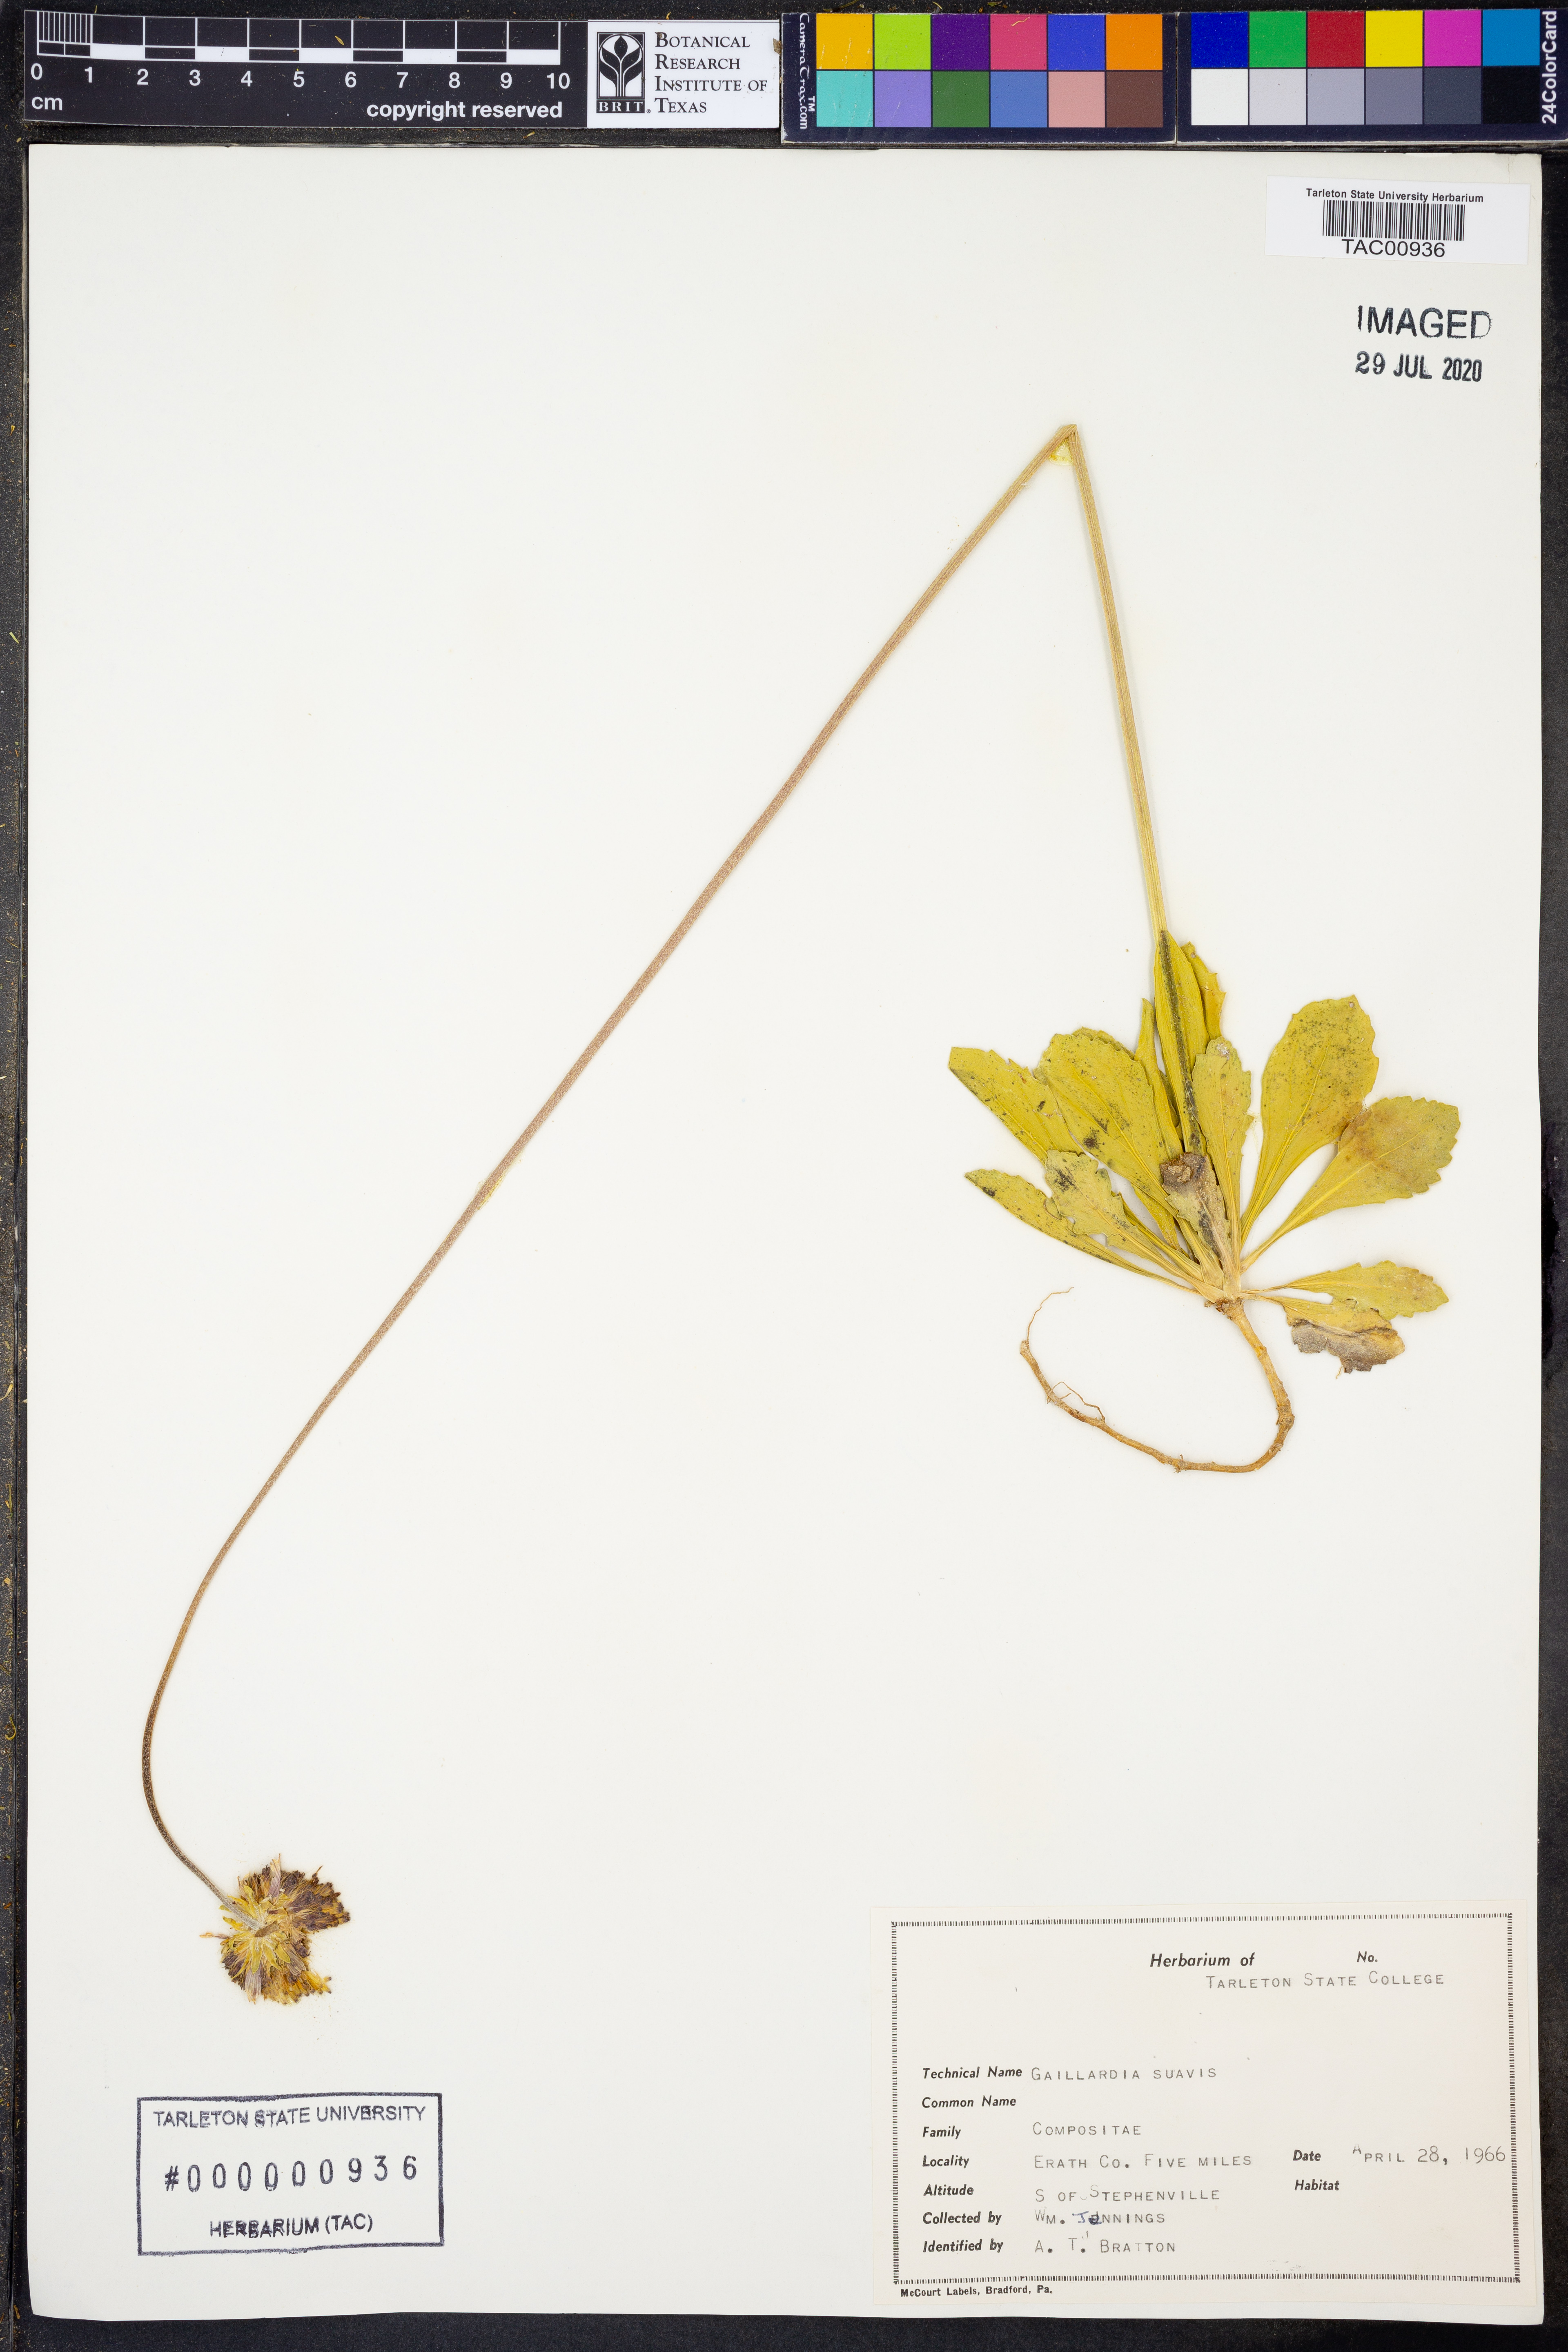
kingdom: Plantae
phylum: Tracheophyta
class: Magnoliopsida
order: Asterales
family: Asteraceae
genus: Gaillardia
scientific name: Gaillardia suavis
